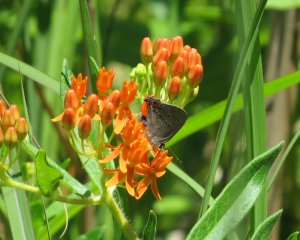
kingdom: Animalia
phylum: Arthropoda
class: Insecta
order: Lepidoptera
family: Lycaenidae
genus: Strymon
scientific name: Strymon melinus
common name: Gray Hairstreak
